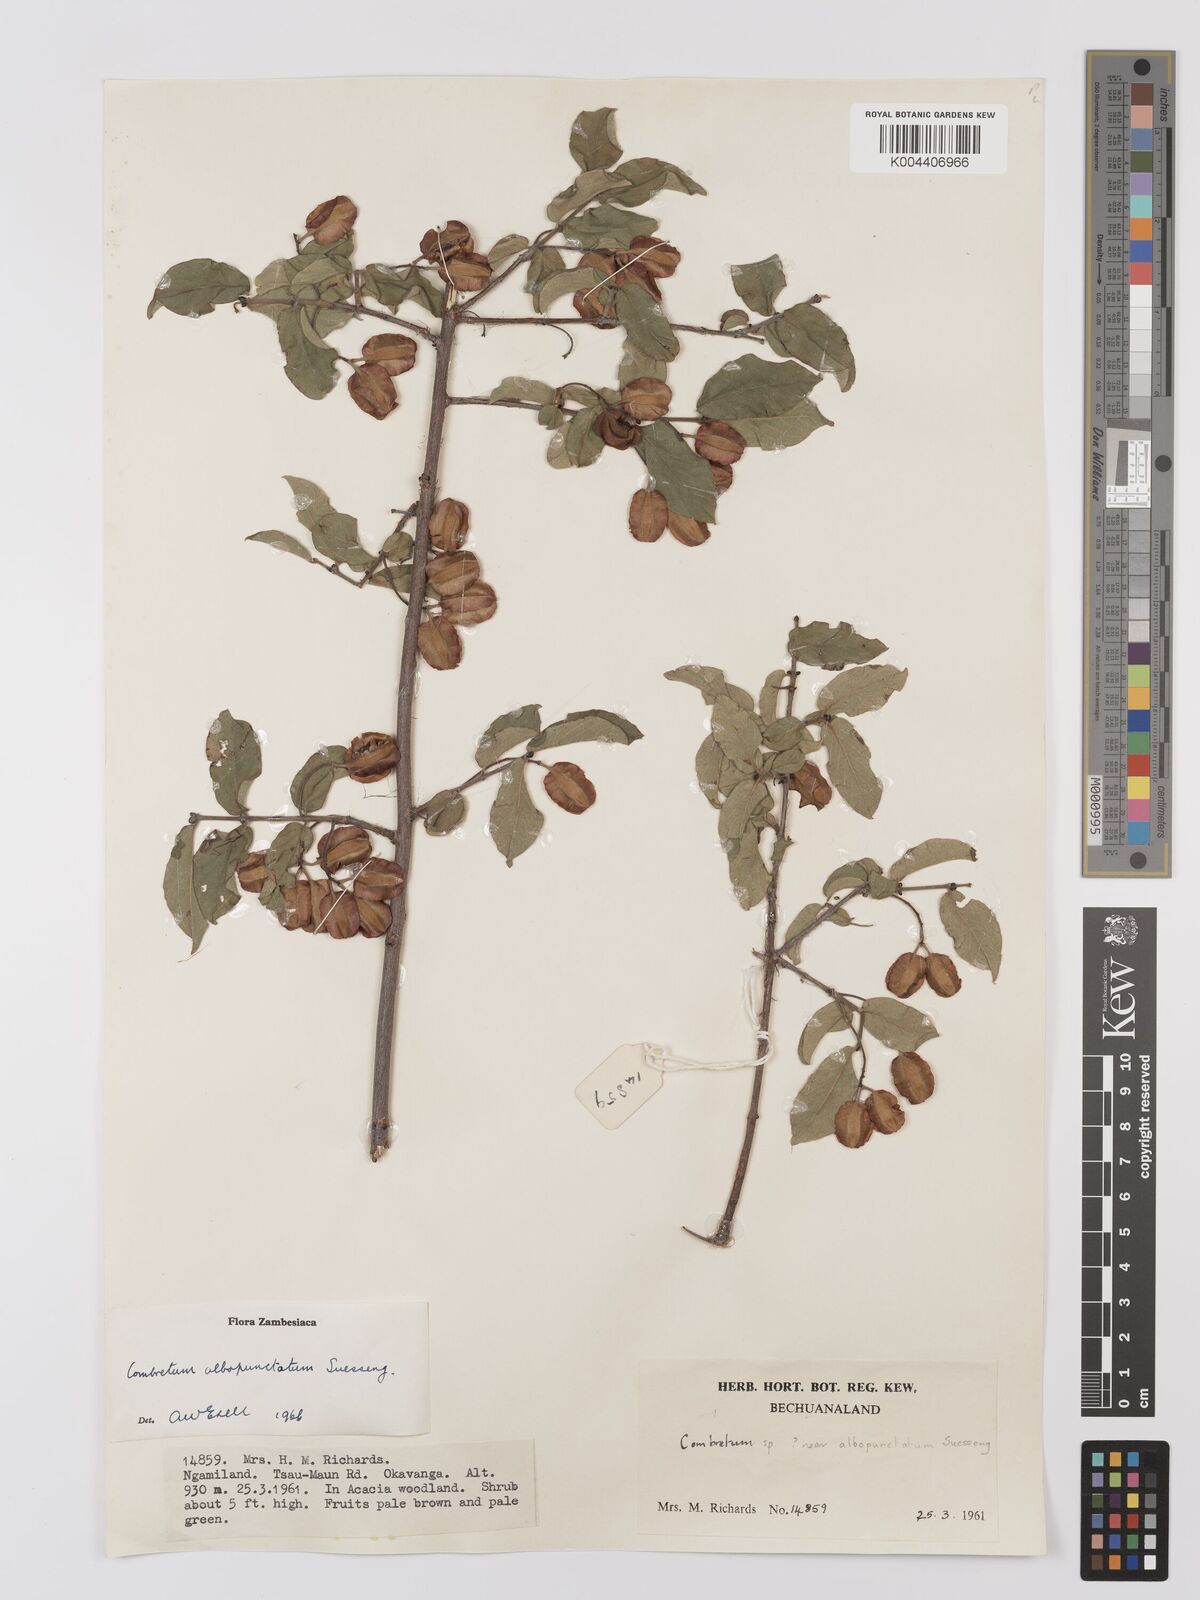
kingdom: Plantae
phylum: Tracheophyta
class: Magnoliopsida
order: Myrtales
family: Combretaceae
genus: Combretum
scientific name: Combretum albopunctatum
